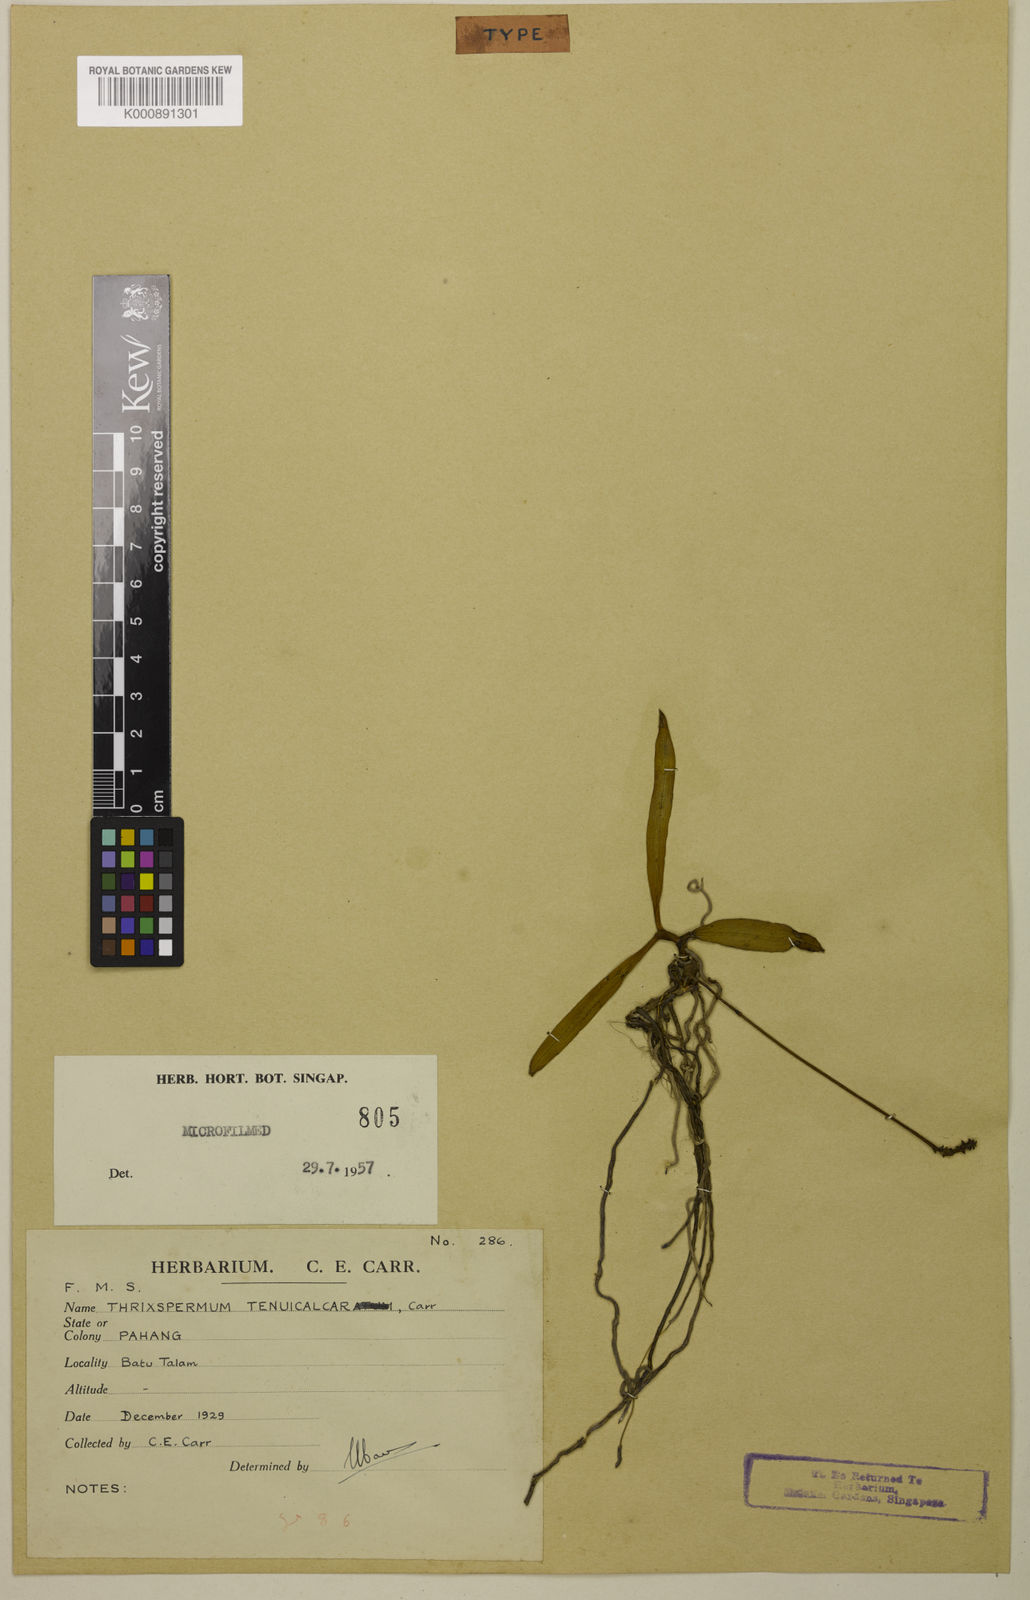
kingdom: Plantae
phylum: Tracheophyta
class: Liliopsida
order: Asparagales
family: Orchidaceae
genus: Thrixspermum
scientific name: Thrixspermum tenuicalcar
